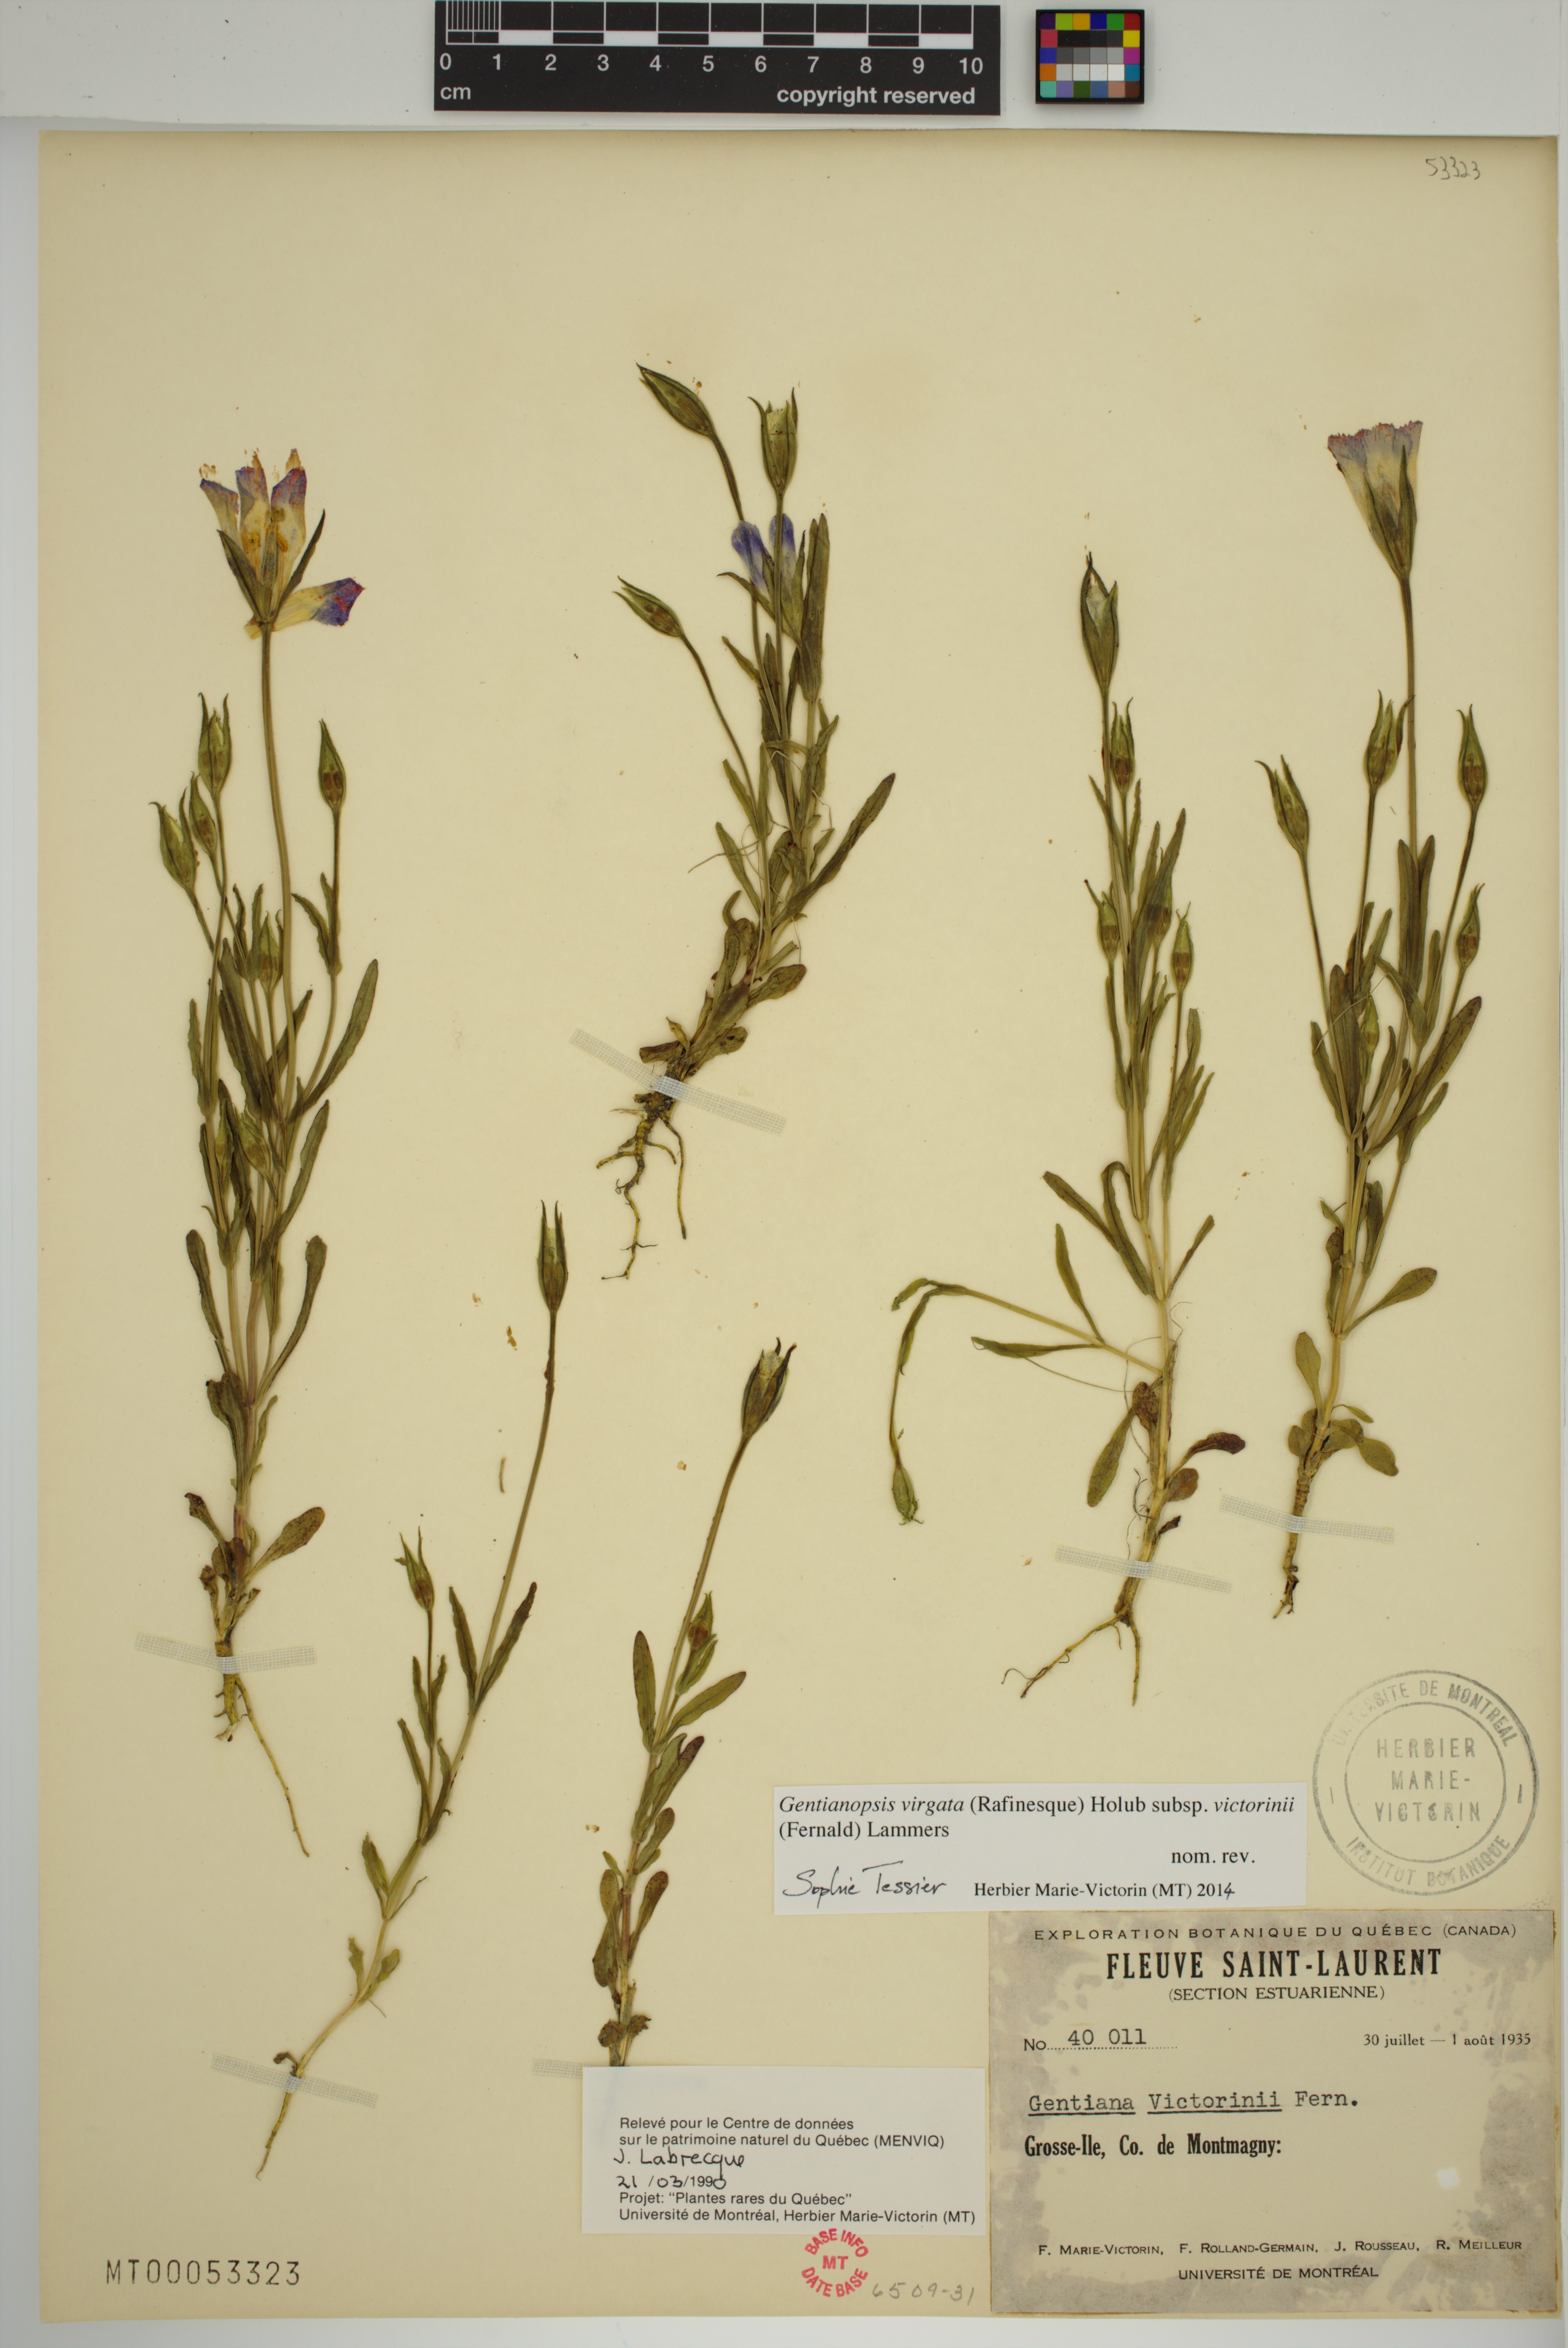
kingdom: Plantae
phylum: Tracheophyta
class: Magnoliopsida
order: Gentianales
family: Gentianaceae
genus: Gentianopsis
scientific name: Gentianopsis victorinii
